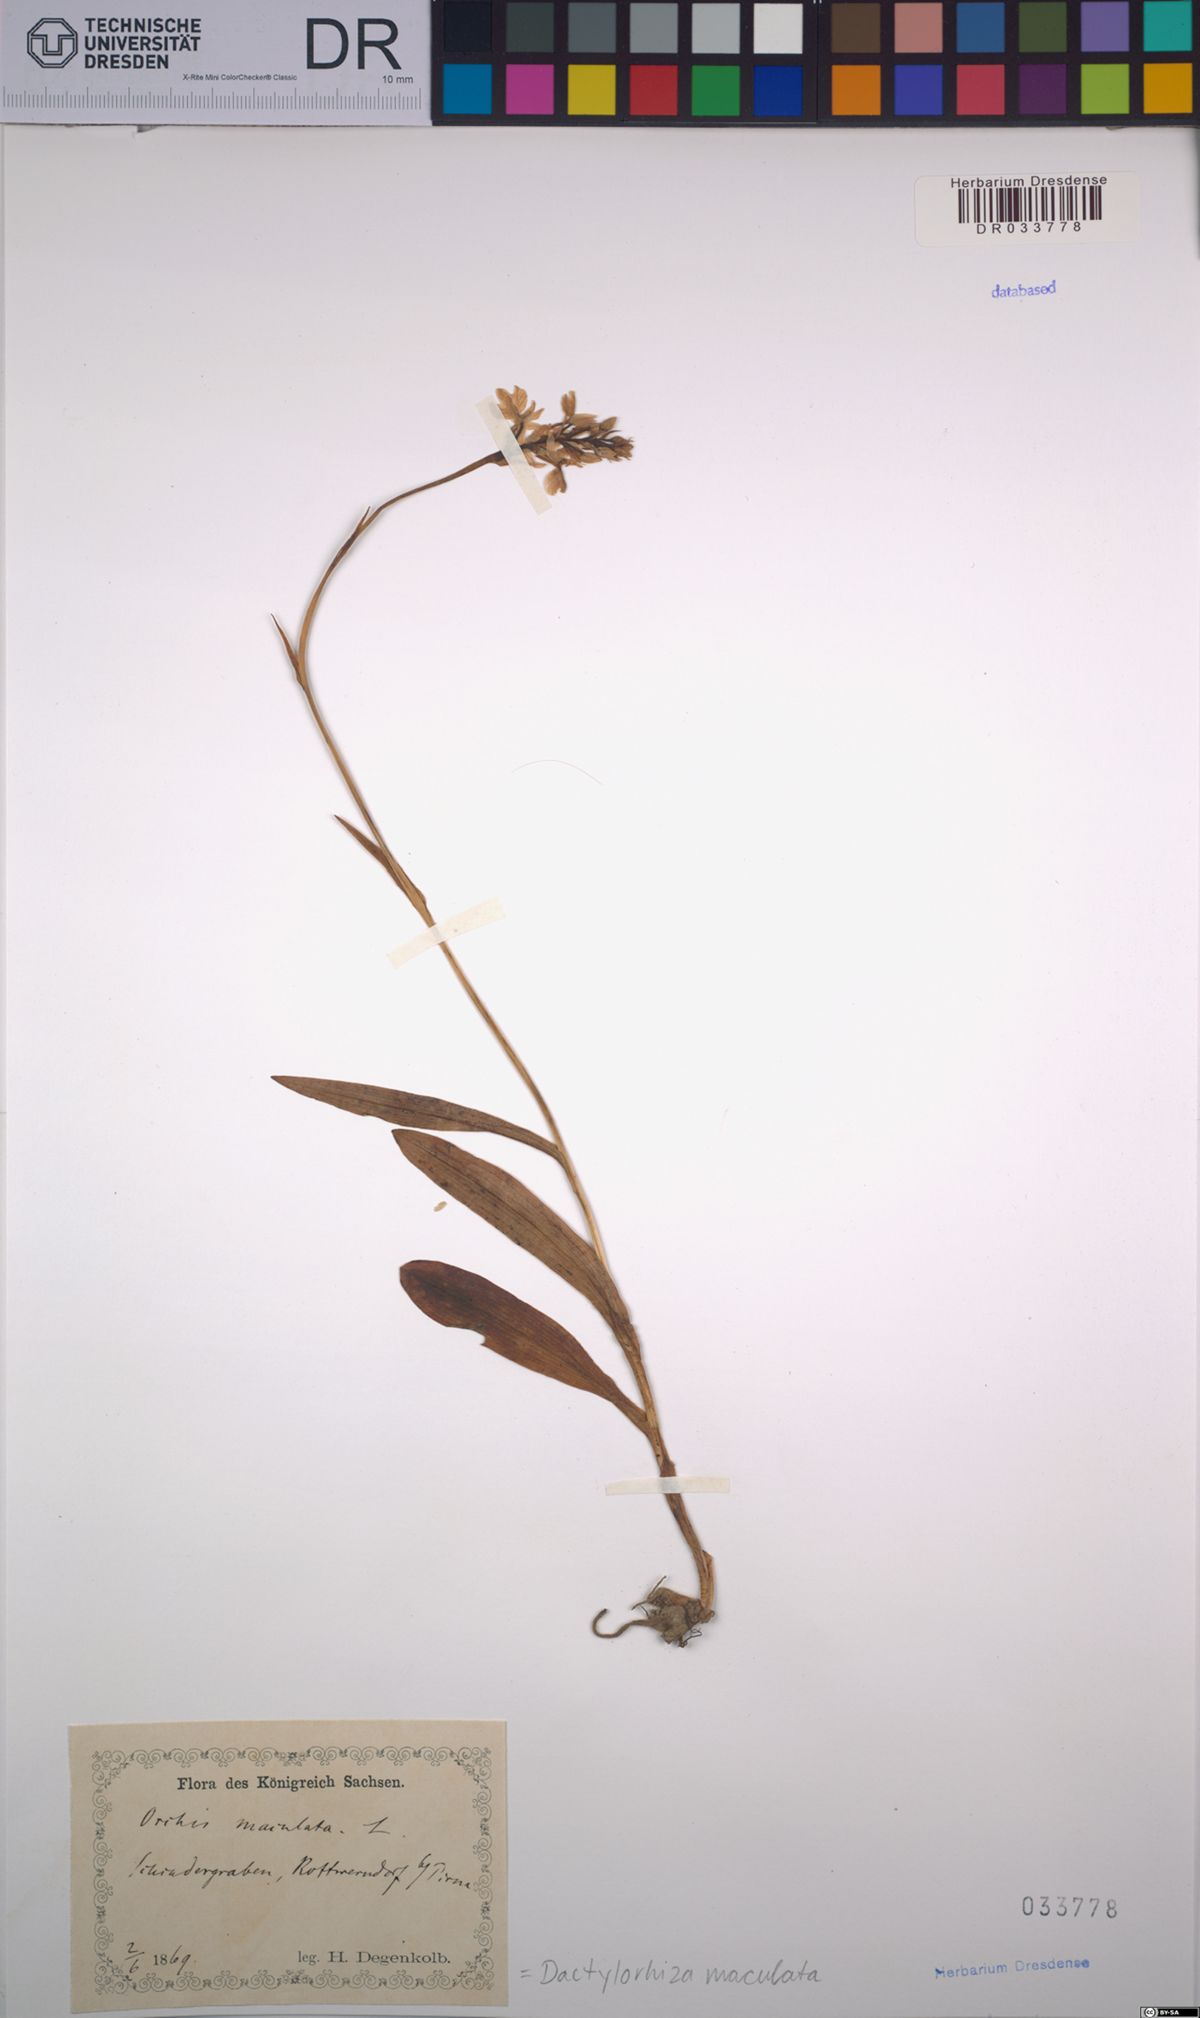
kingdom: Plantae
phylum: Tracheophyta
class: Liliopsida
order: Asparagales
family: Orchidaceae
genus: Dactylorhiza
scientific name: Dactylorhiza maculata
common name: Heath spotted-orchid
